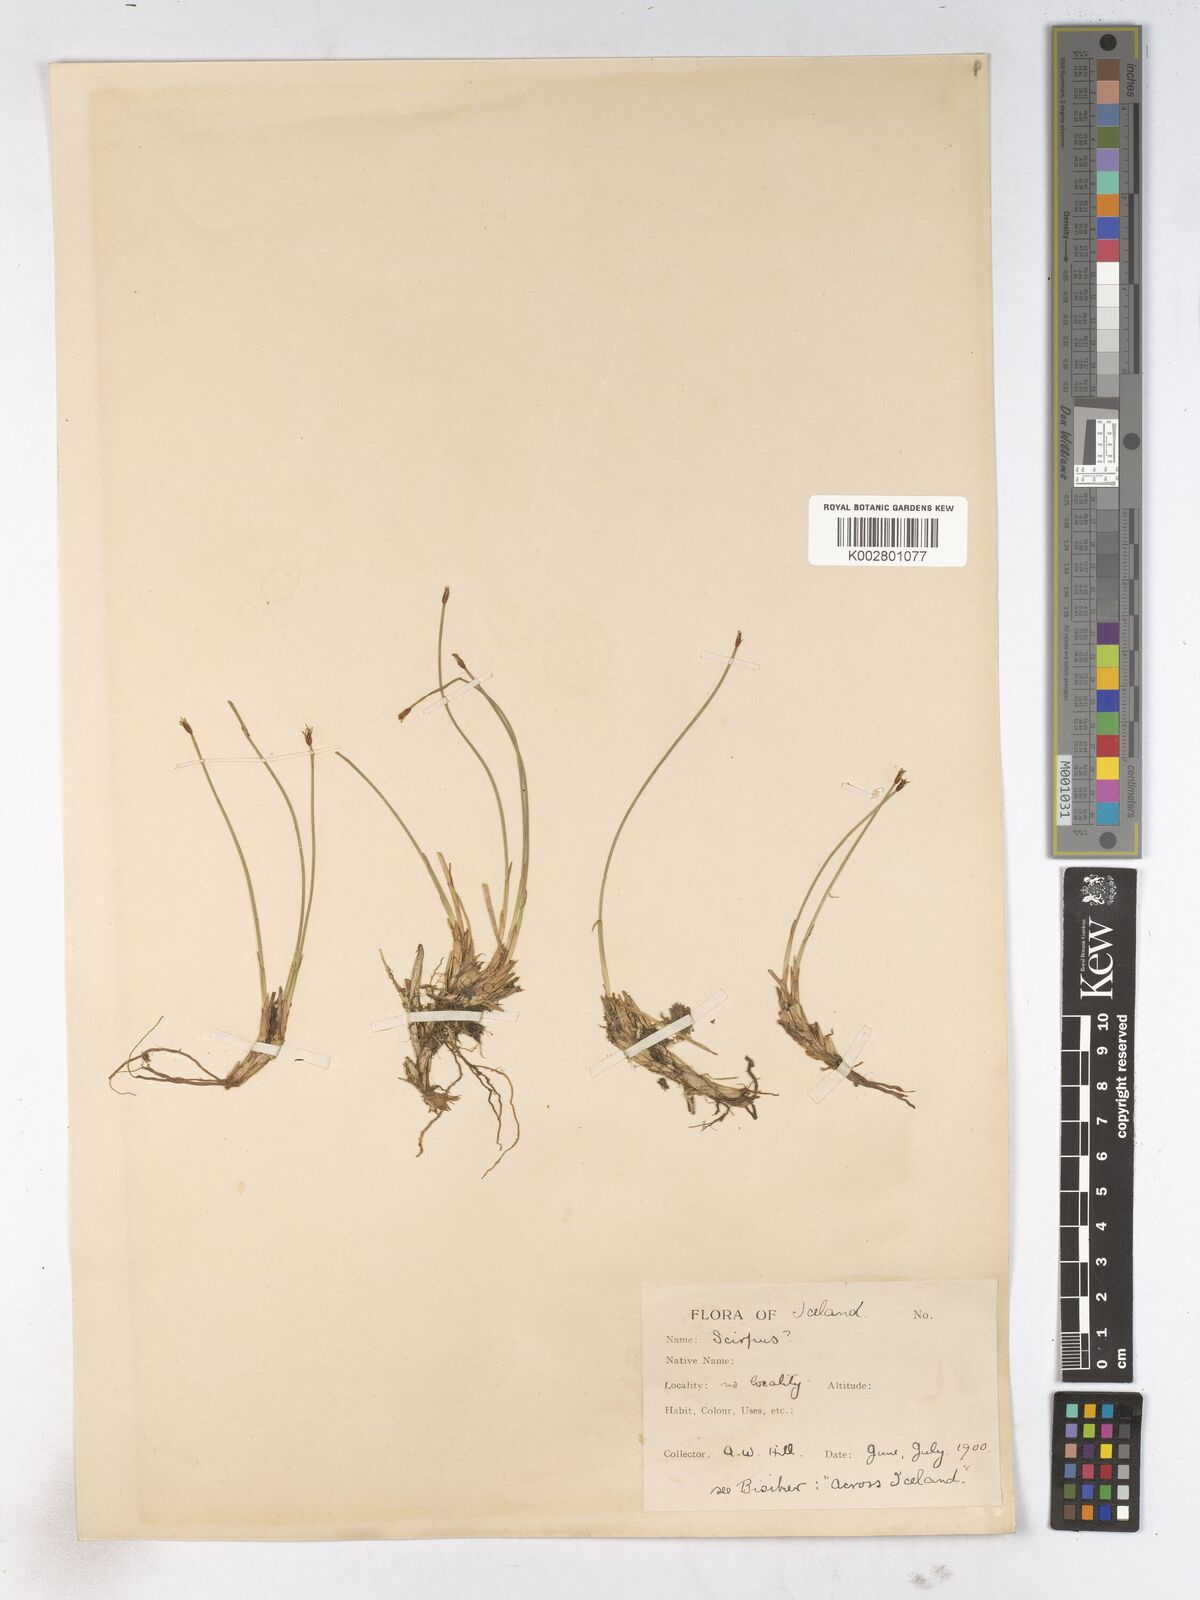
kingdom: Plantae
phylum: Tracheophyta
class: Liliopsida
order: Poales
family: Cyperaceae
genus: Trichophorum
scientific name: Trichophorum cespitosum
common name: Cespitose bulrush
